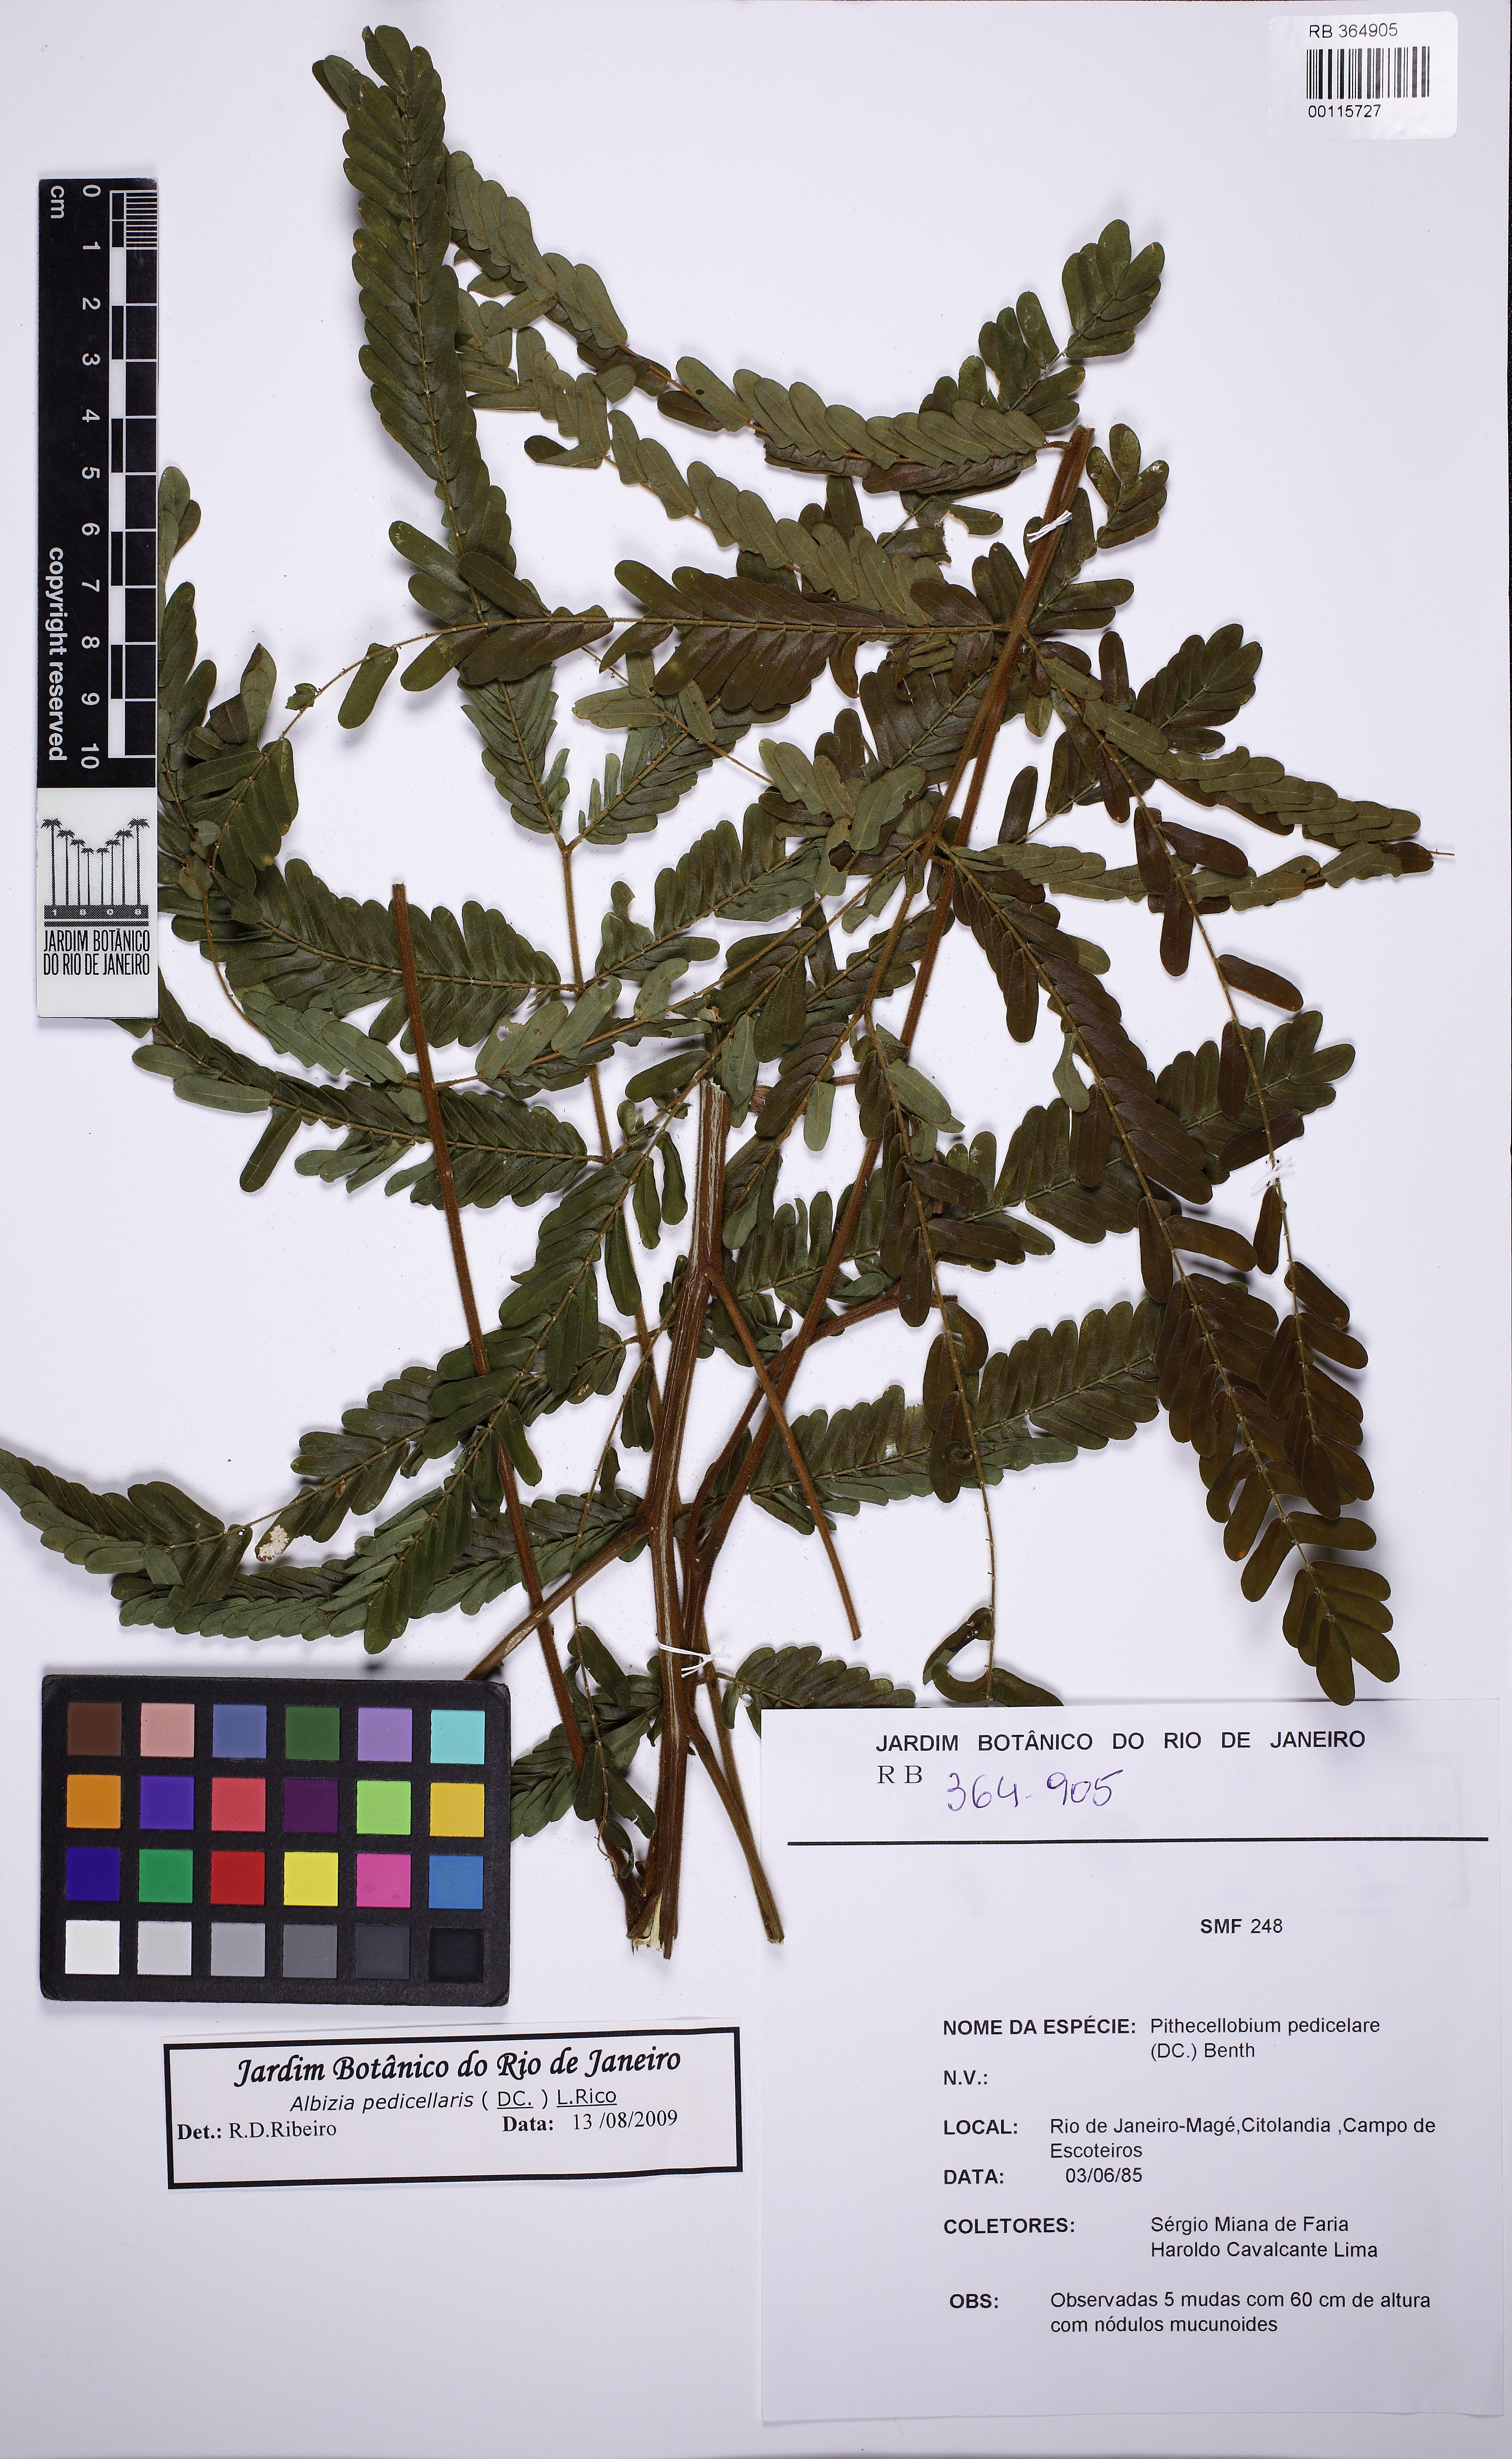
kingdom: Plantae
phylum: Tracheophyta
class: Magnoliopsida
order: Fabales
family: Fabaceae
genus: Balizia
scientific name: Balizia pedicellaris
